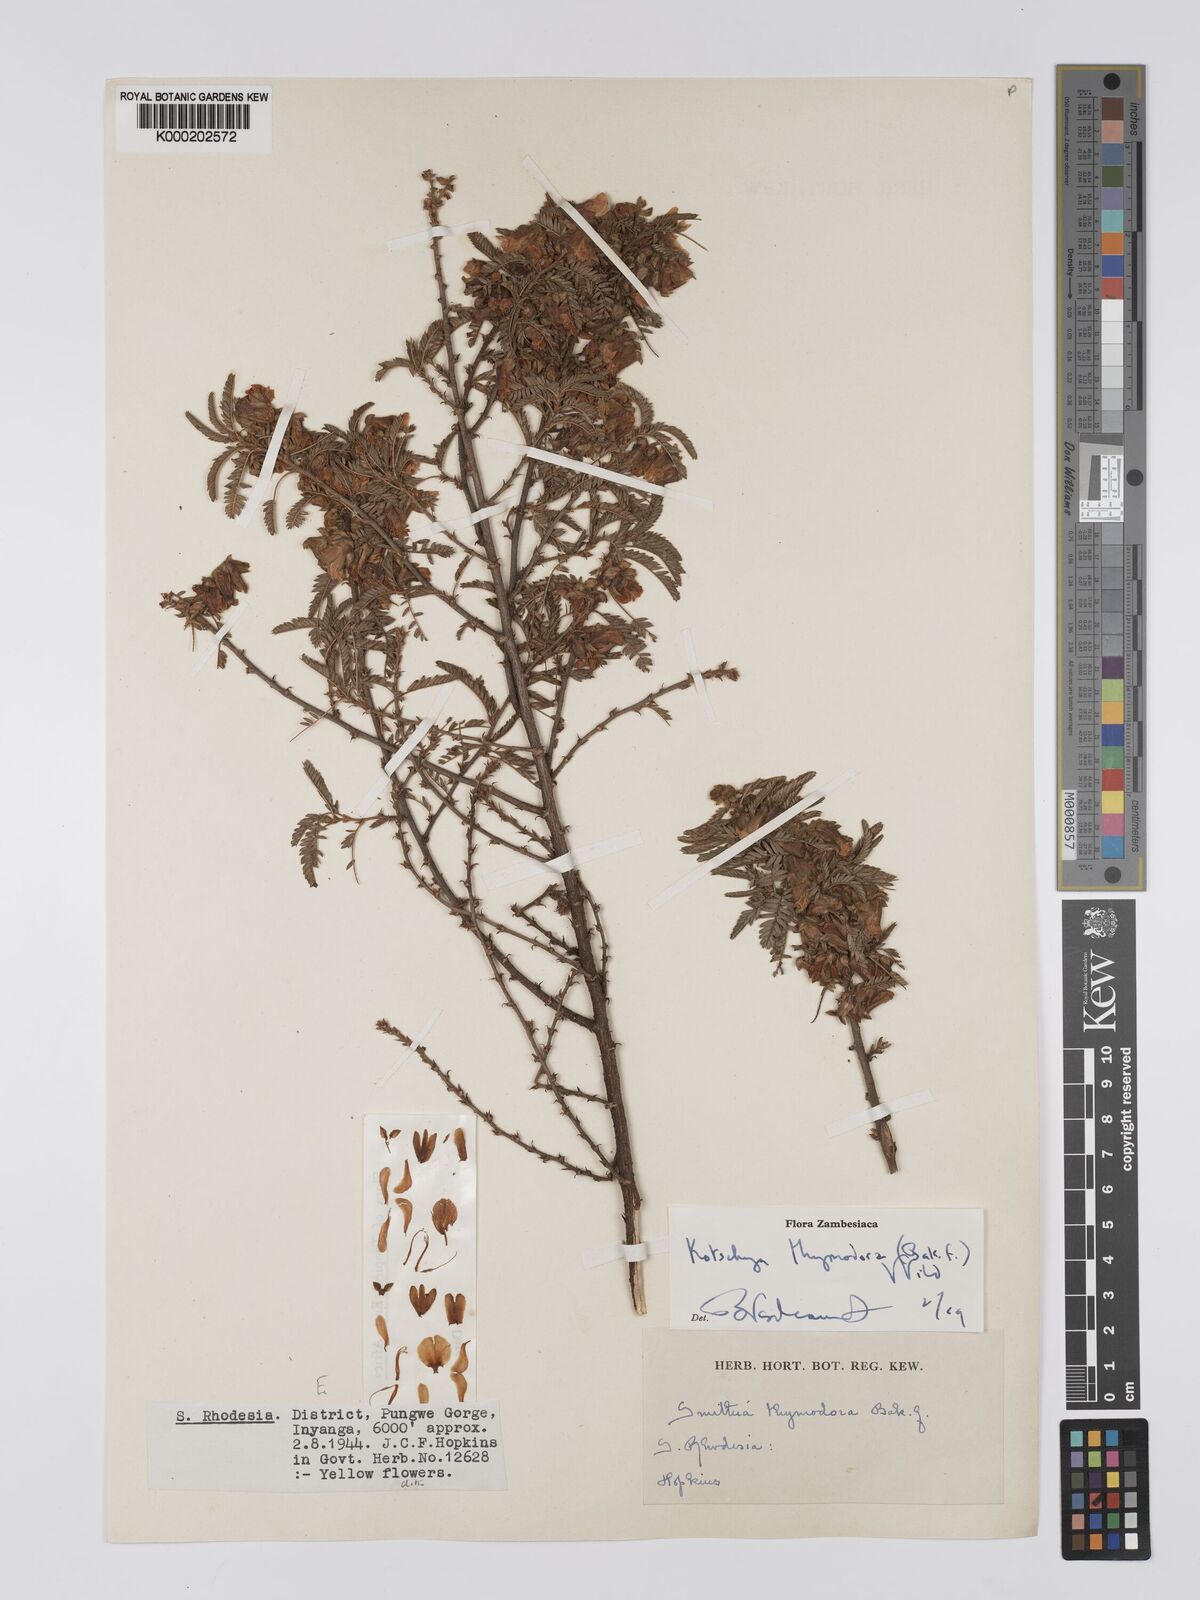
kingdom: Plantae
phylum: Tracheophyta
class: Magnoliopsida
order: Fabales
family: Fabaceae
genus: Kotschya
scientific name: Kotschya thymodora
